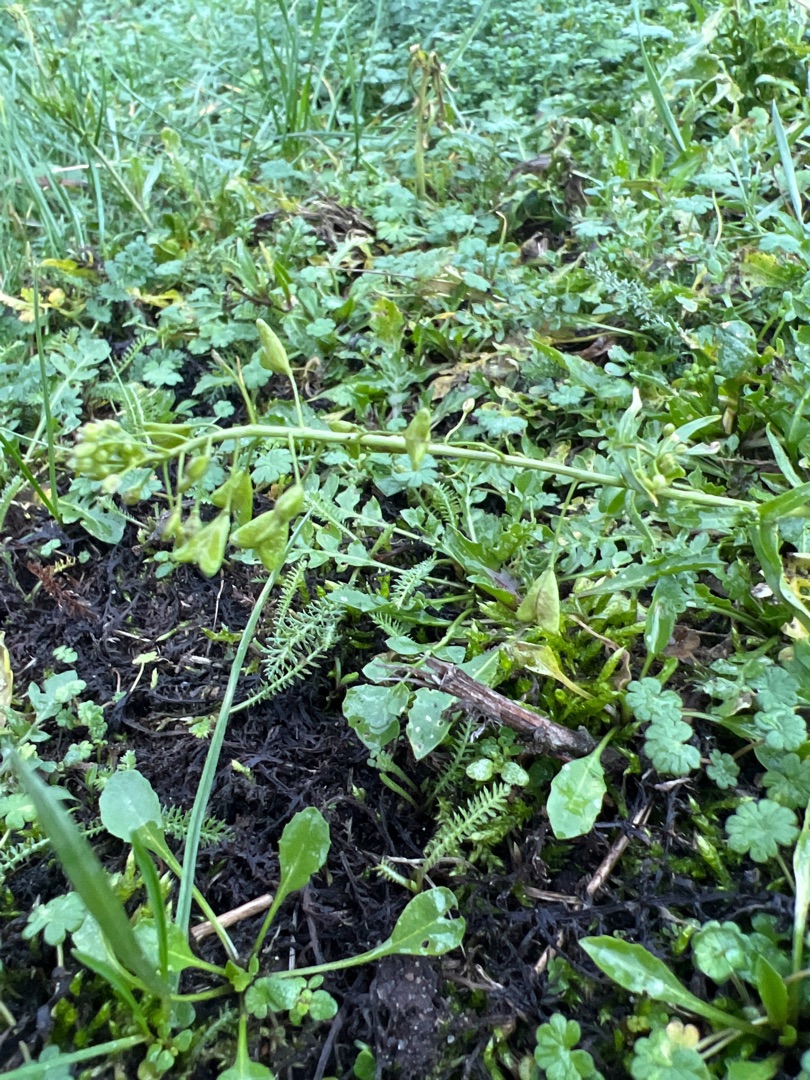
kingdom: Plantae
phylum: Tracheophyta
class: Magnoliopsida
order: Brassicales
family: Brassicaceae
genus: Capsella
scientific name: Capsella bursa-pastoris
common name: Hyrdetaske
